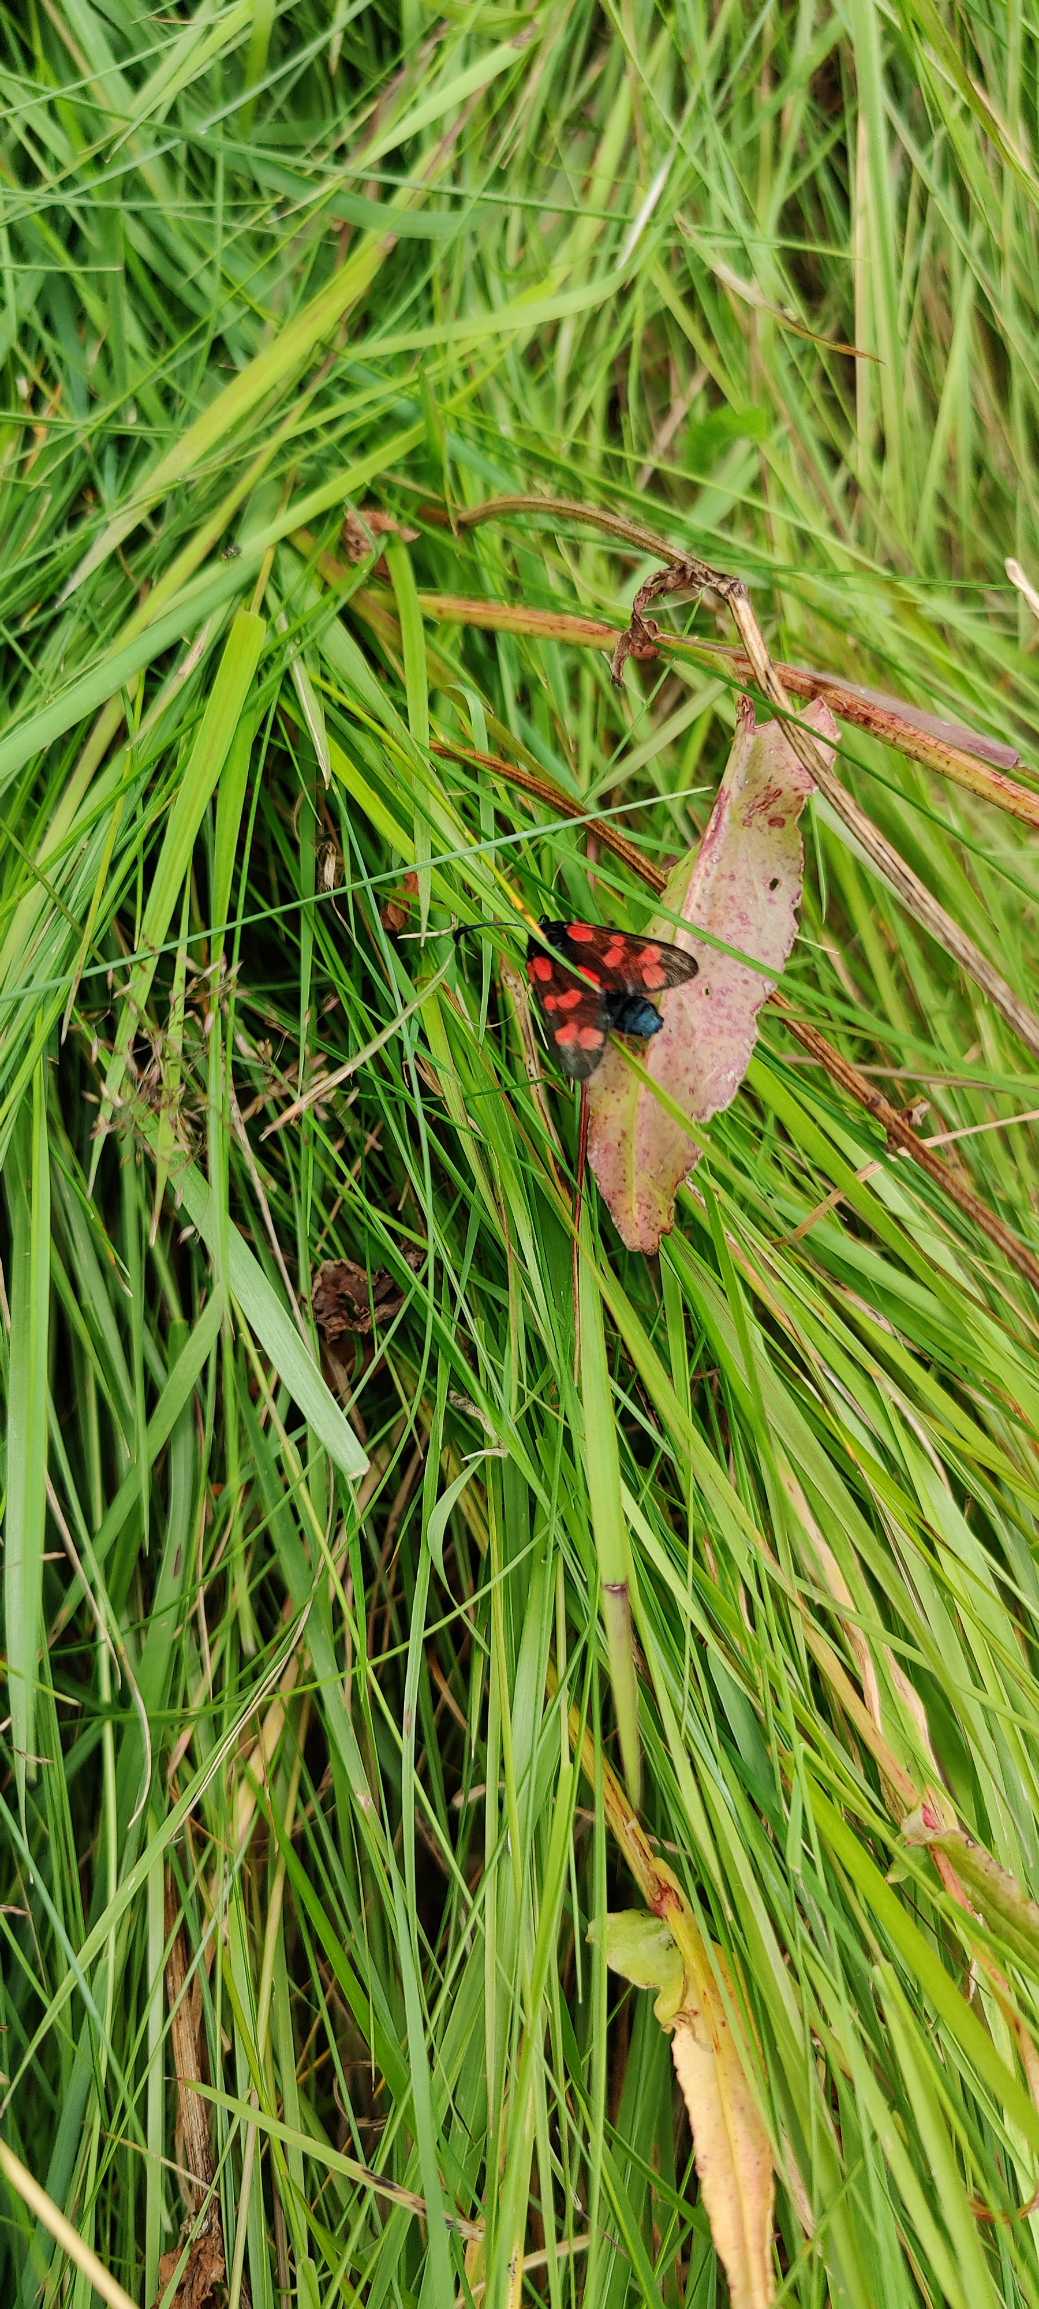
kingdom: Animalia
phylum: Arthropoda
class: Insecta
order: Lepidoptera
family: Zygaenidae
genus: Zygaena
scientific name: Zygaena filipendulae
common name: Seksplettet køllesværmer
